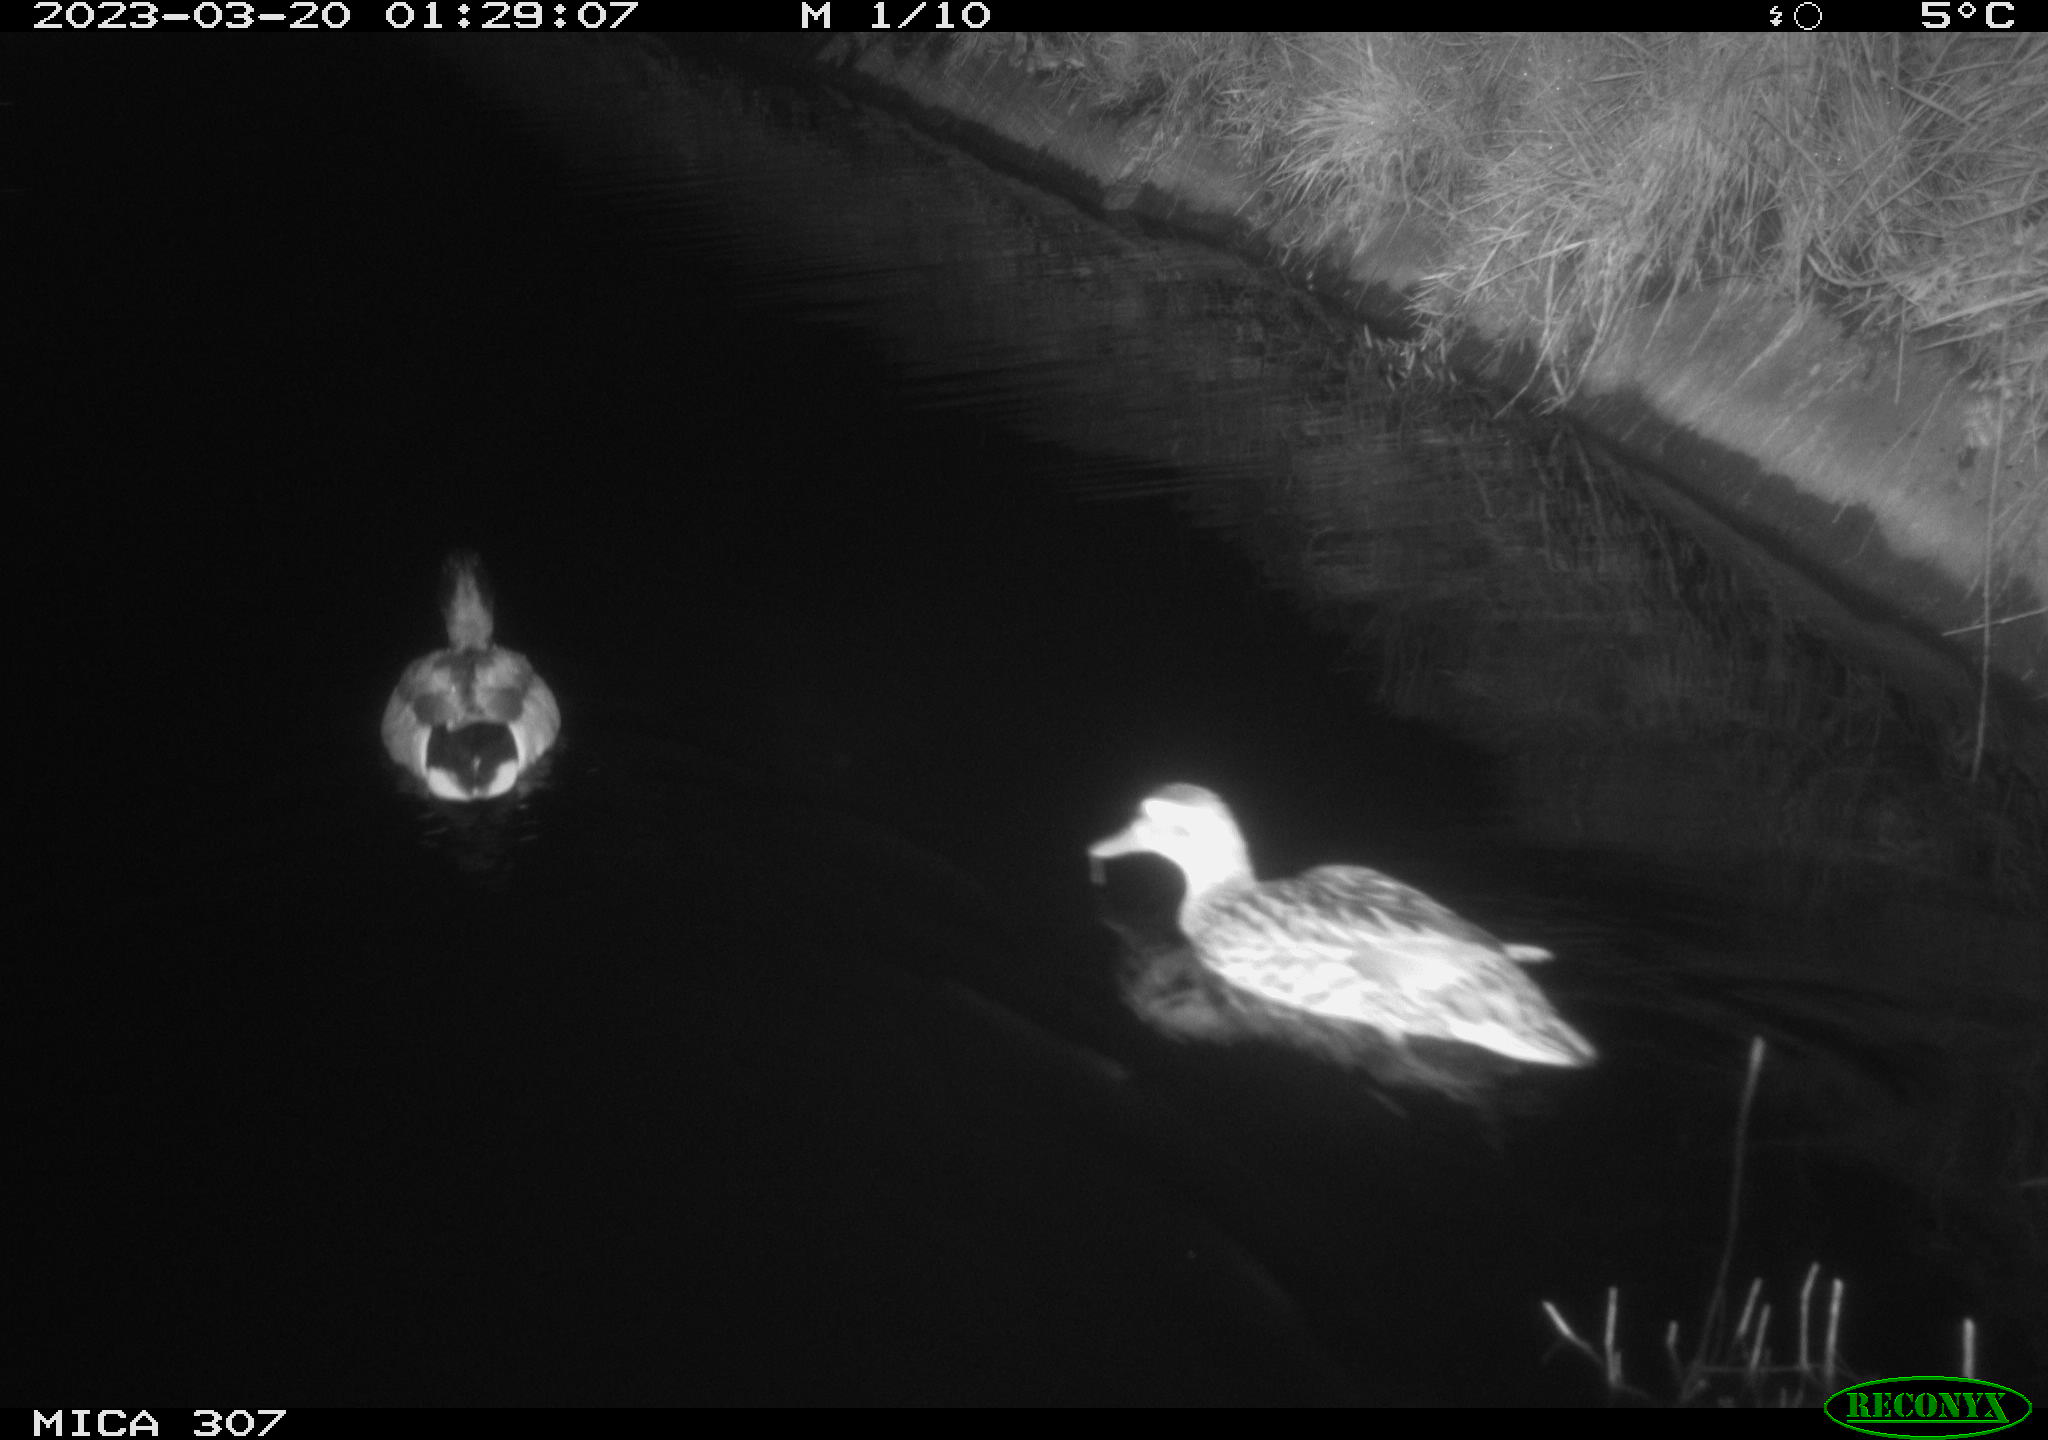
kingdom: Animalia
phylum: Chordata
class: Aves
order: Anseriformes
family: Anatidae
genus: Anas
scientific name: Anas
